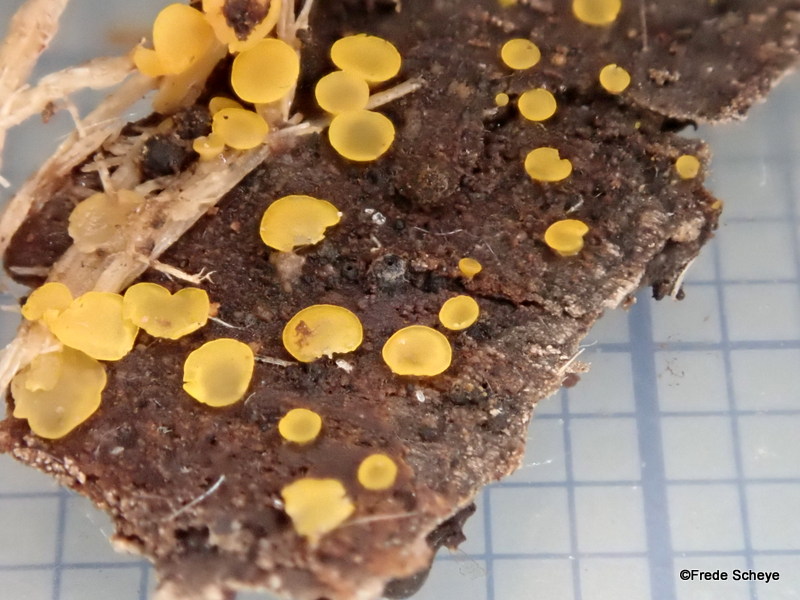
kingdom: Fungi
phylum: Ascomycota
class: Orbiliomycetes
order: Orbiliales
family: Orbiliaceae
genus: Orbilia
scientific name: Orbilia xanthostigma
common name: krumsporet voksskive
